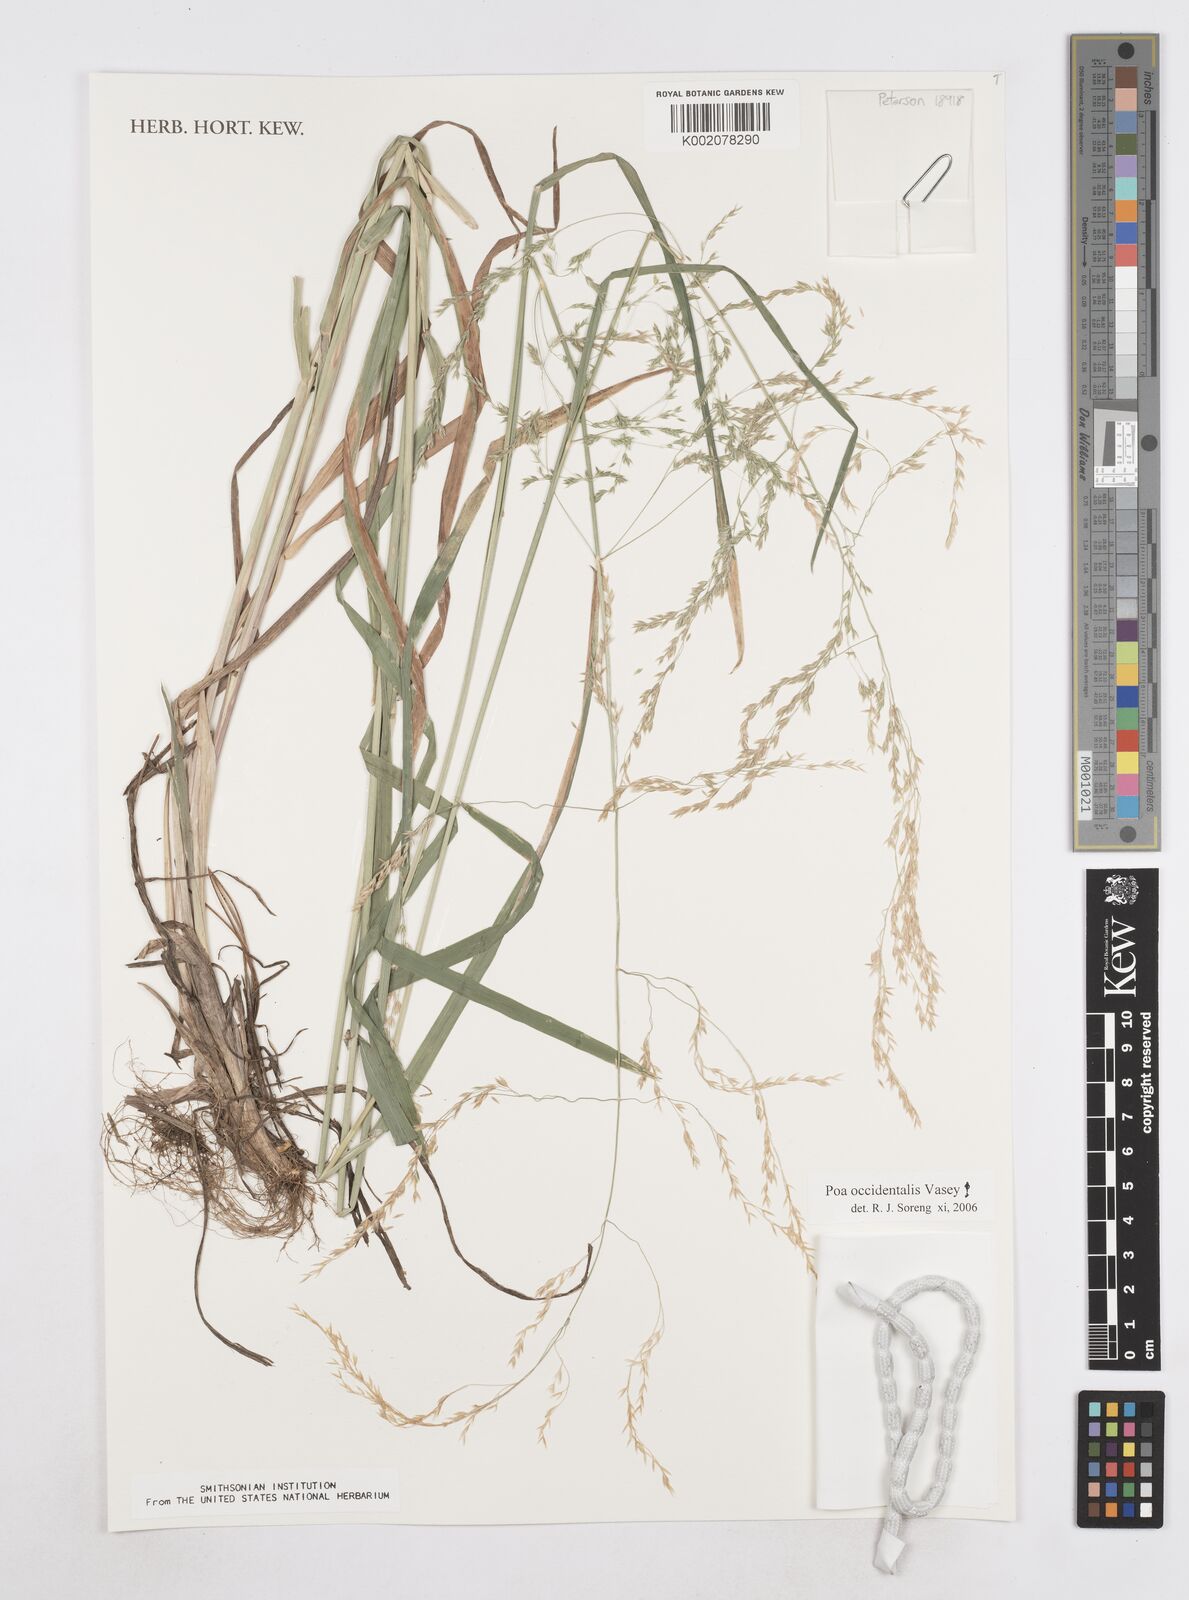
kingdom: Plantae
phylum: Tracheophyta
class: Liliopsida
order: Poales
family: Poaceae
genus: Poa
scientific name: Poa occidentalis
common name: New mexican bluegrass
